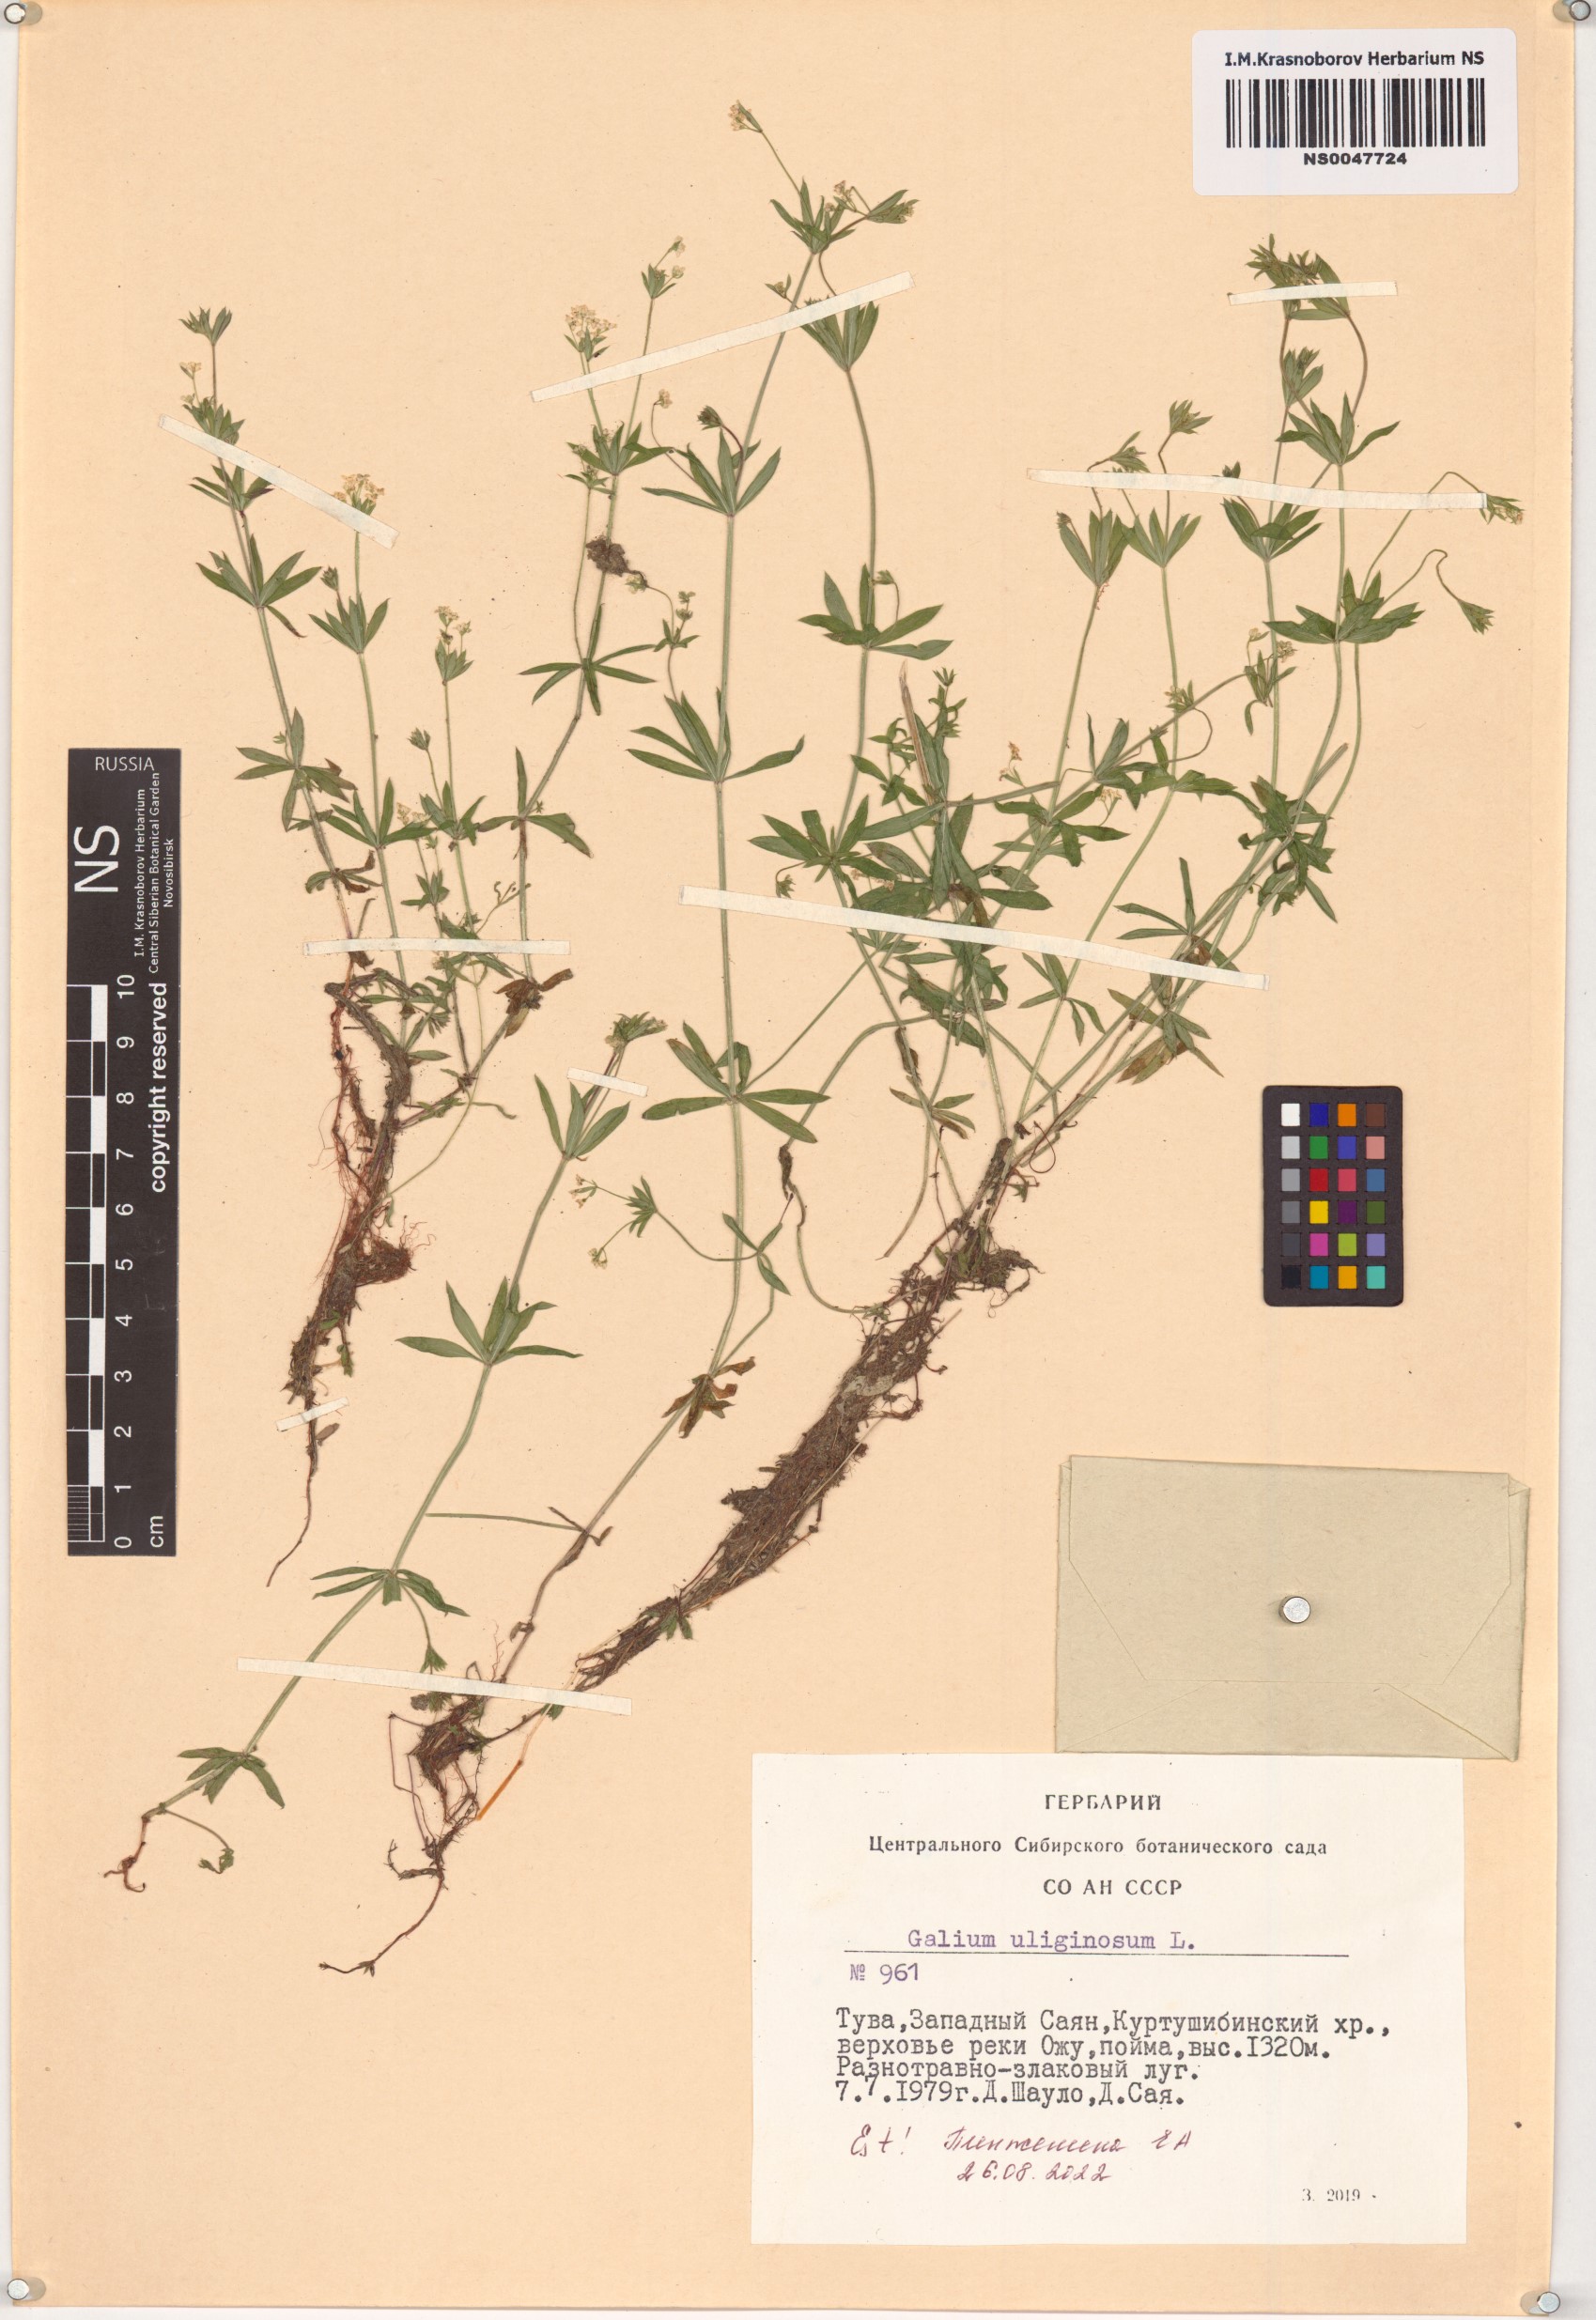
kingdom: Plantae
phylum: Tracheophyta
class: Magnoliopsida
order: Gentianales
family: Rubiaceae
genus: Galium
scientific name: Galium uliginosum
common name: Fen bedstraw
